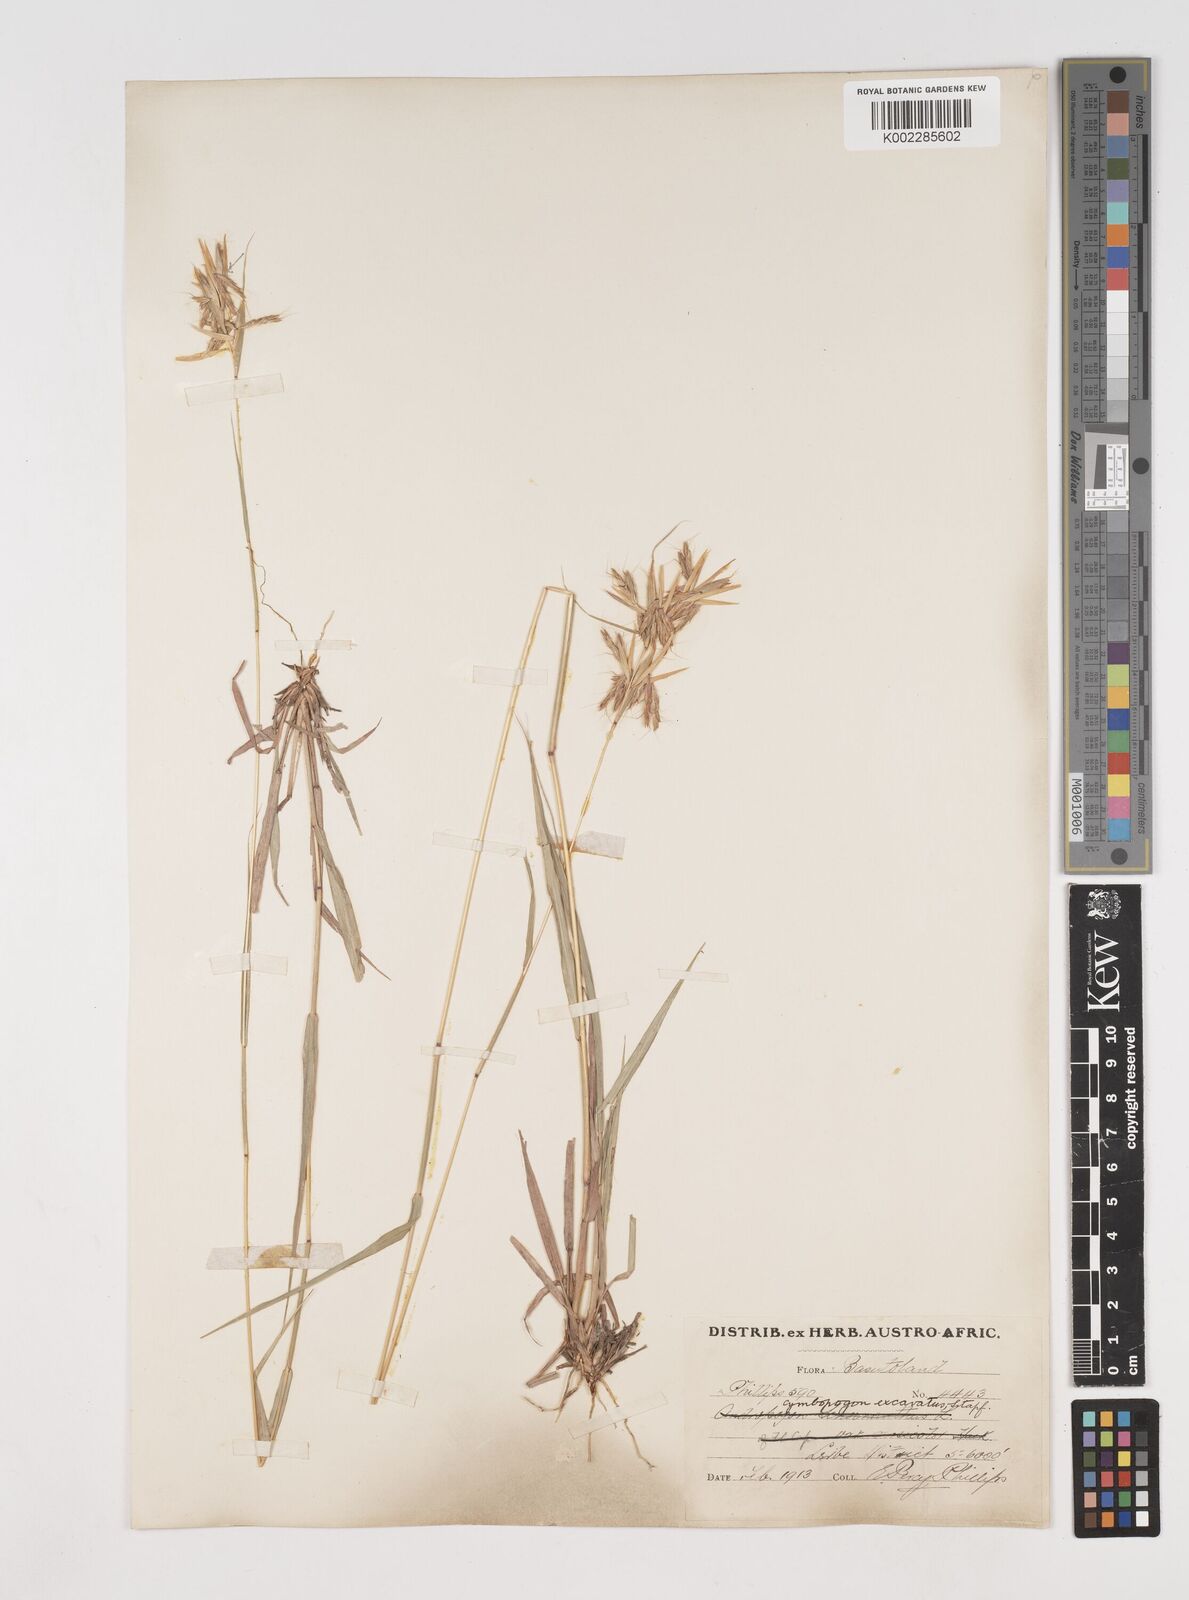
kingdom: Plantae
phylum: Tracheophyta
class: Liliopsida
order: Poales
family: Poaceae
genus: Cymbopogon
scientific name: Cymbopogon caesius
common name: Kachi grass
